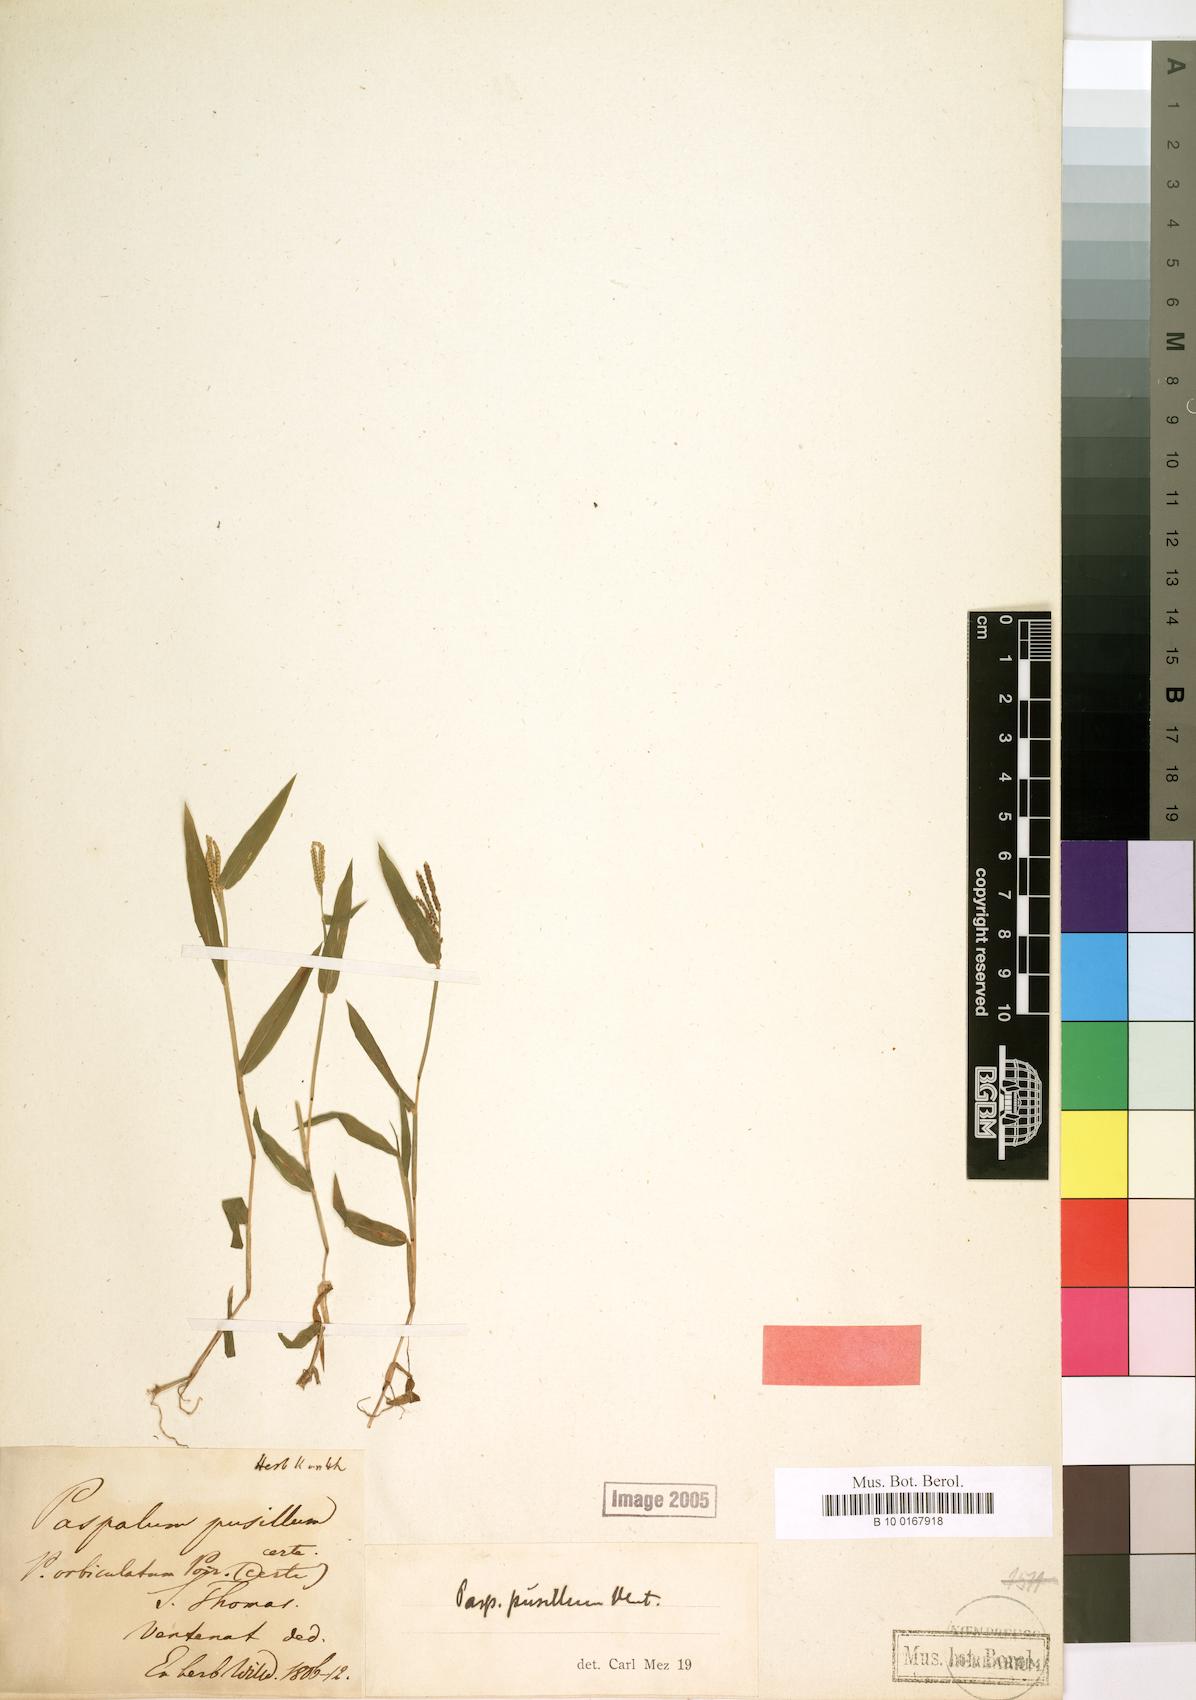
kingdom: Plantae
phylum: Tracheophyta
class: Liliopsida
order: Poales
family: Poaceae
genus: Paspalum
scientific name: Paspalum orbiculatum
